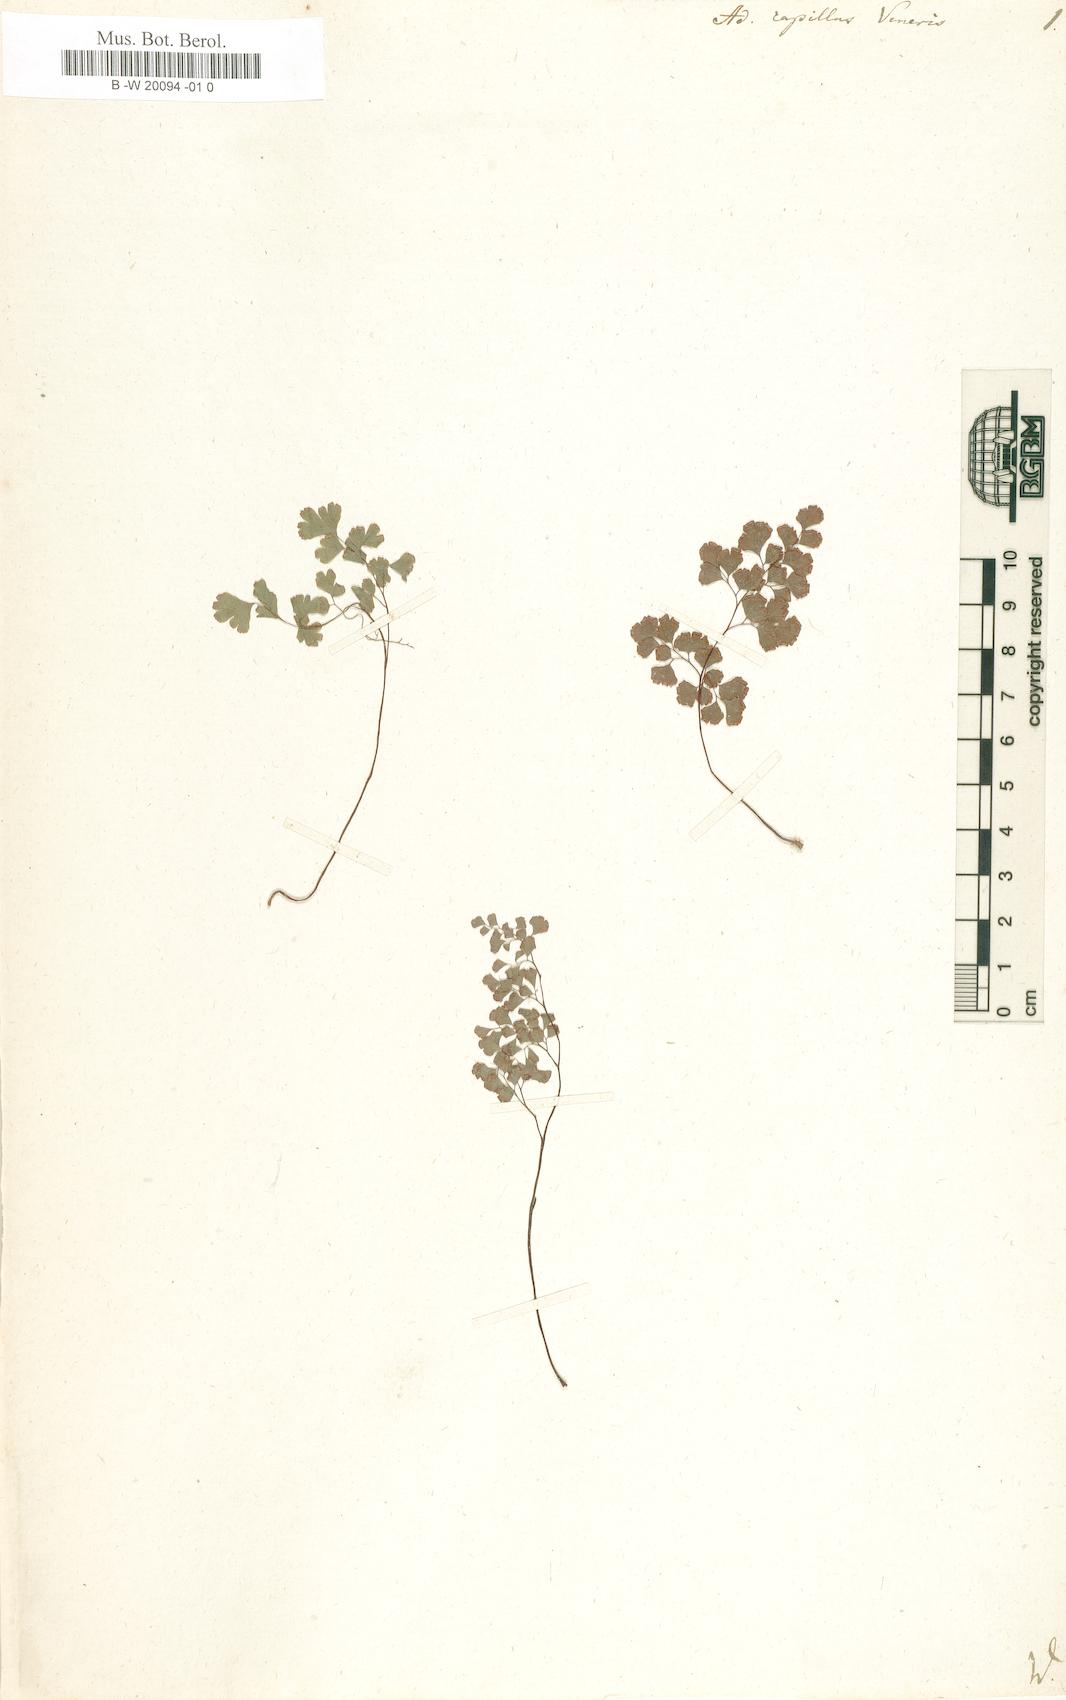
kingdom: Plantae
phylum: Tracheophyta
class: Polypodiopsida
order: Polypodiales
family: Pteridaceae
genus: Adiantum
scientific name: Adiantum capillus-veneris
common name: Maidenhair fern
